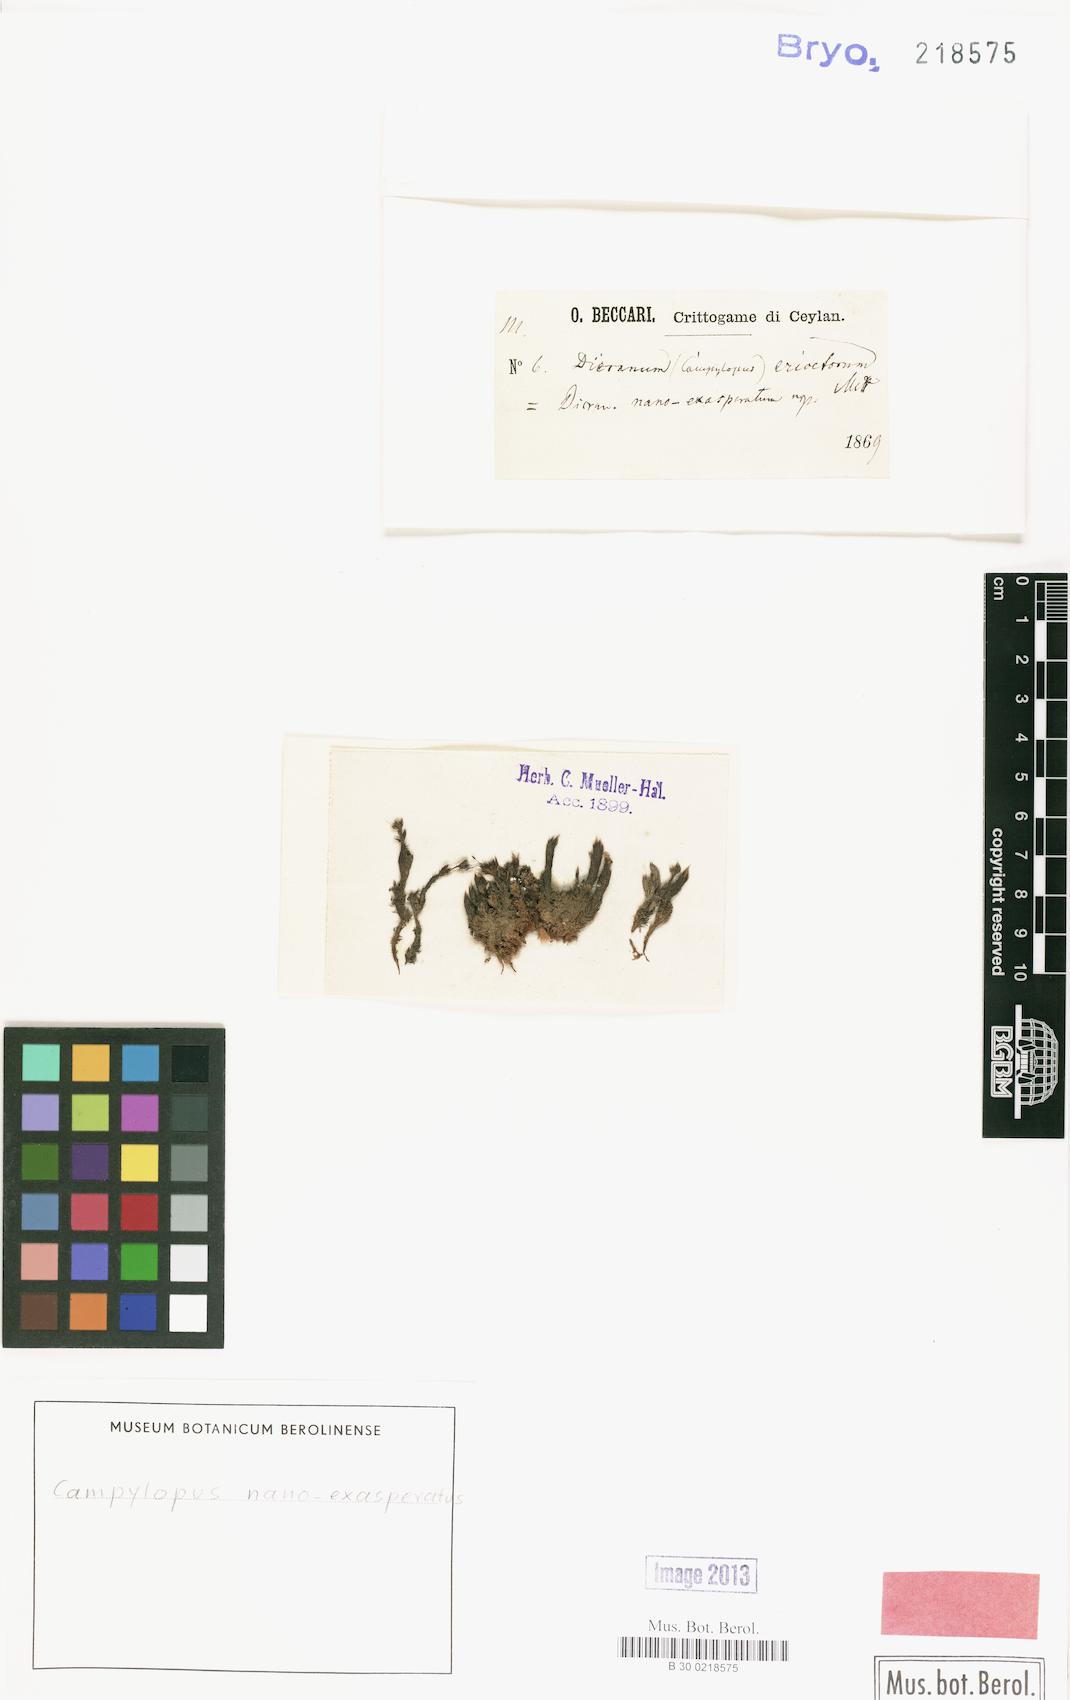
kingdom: Plantae
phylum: Bryophyta
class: Bryopsida
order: Dicranales
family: Dicranaceae
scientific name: Dicranaceae
